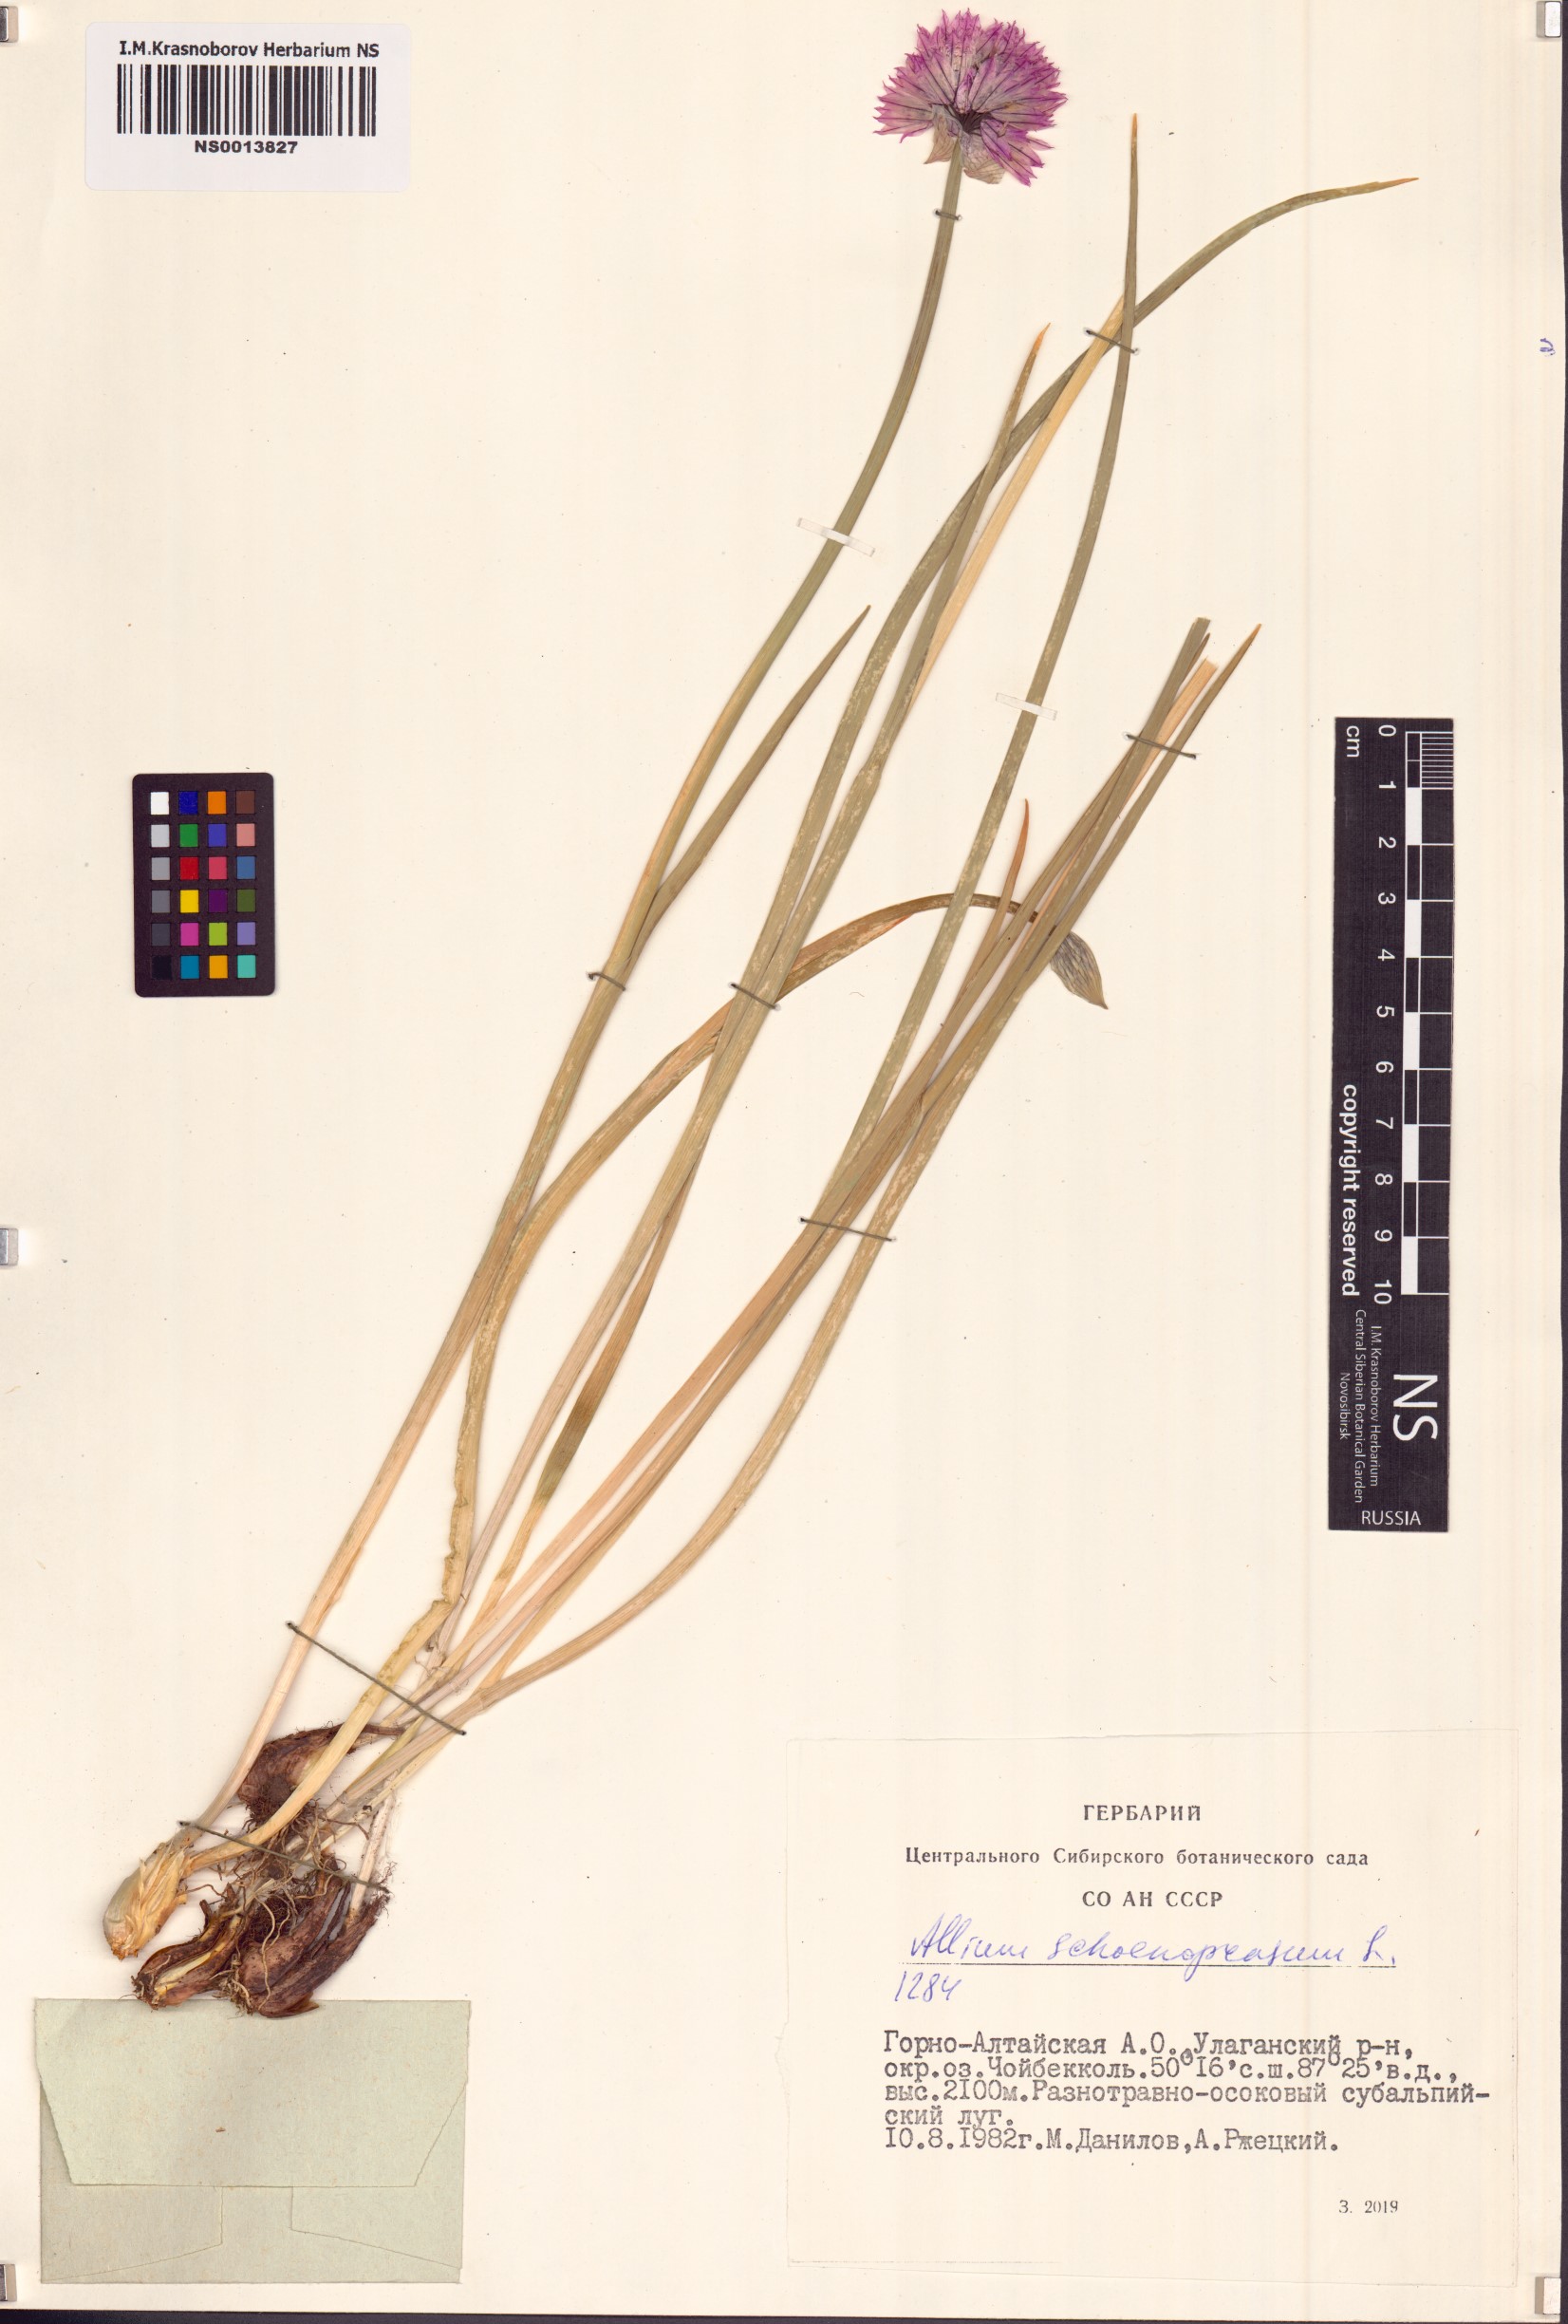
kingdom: Plantae
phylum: Tracheophyta
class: Liliopsida
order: Asparagales
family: Amaryllidaceae
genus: Allium
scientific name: Allium schoenoprasum
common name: Chives
